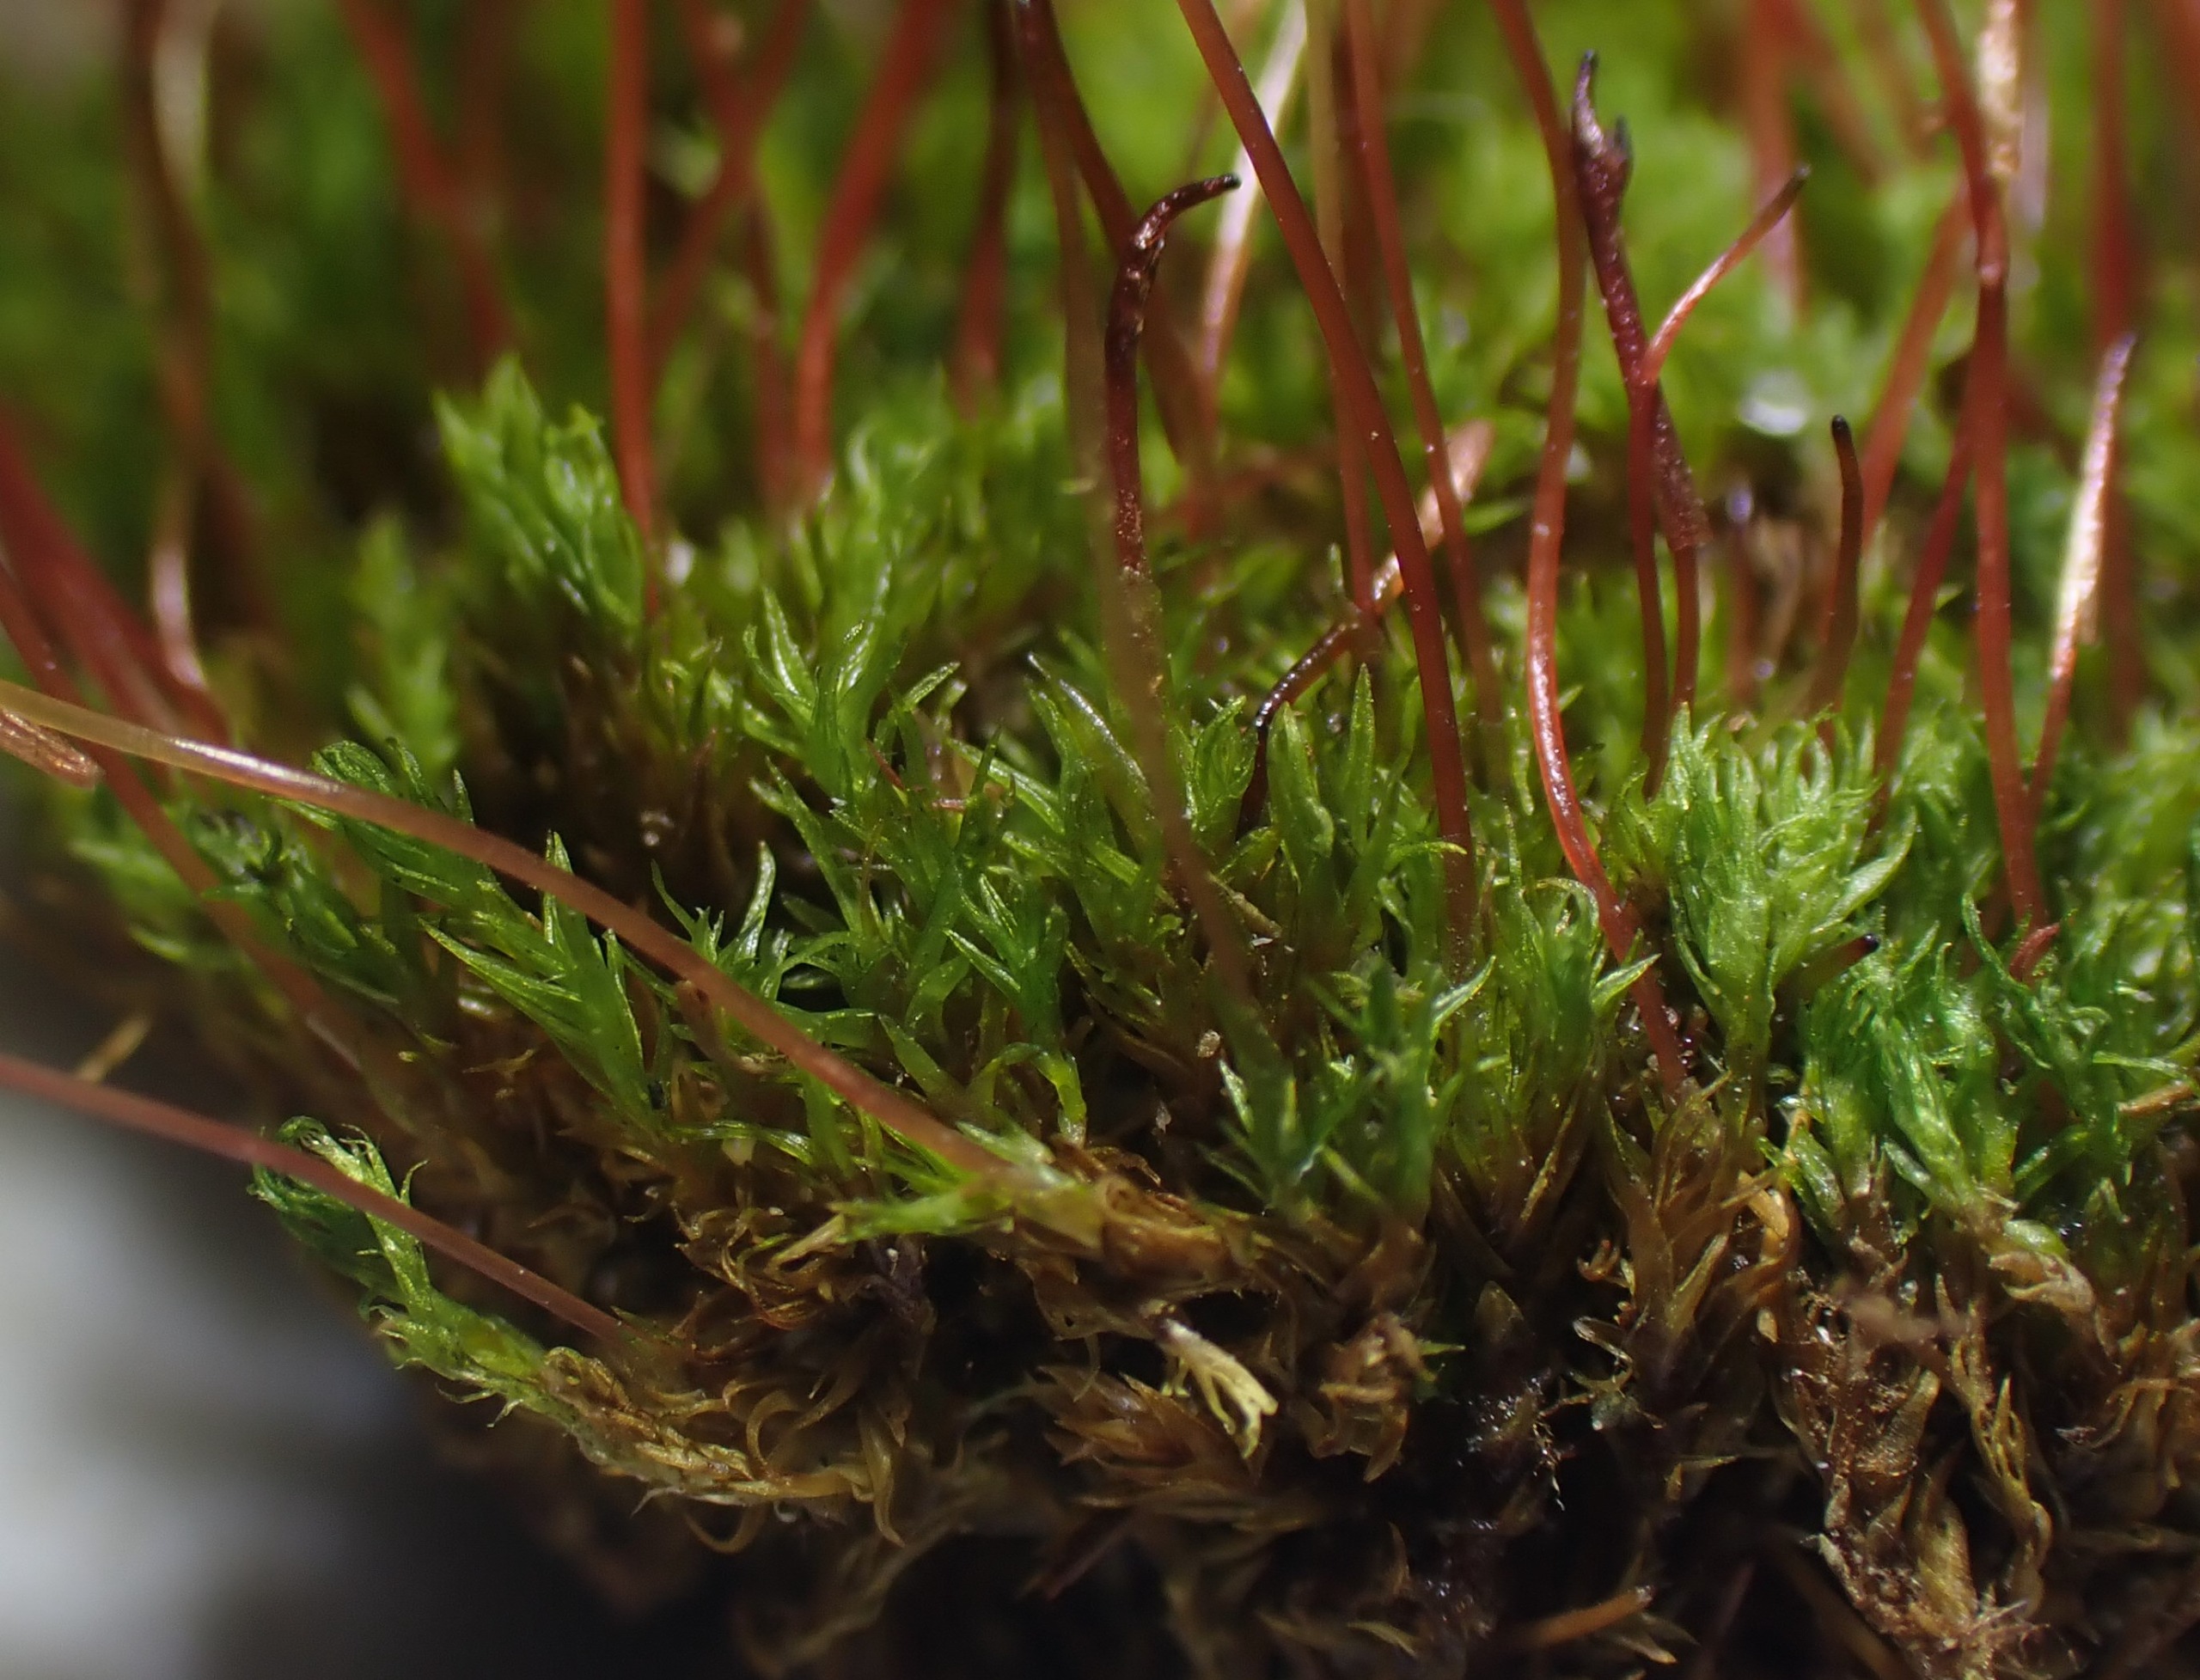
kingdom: Plantae
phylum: Bryophyta
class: Bryopsida
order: Dicranales
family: Ditrichaceae
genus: Ceratodon
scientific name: Ceratodon purpureus
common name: Rød horntand
